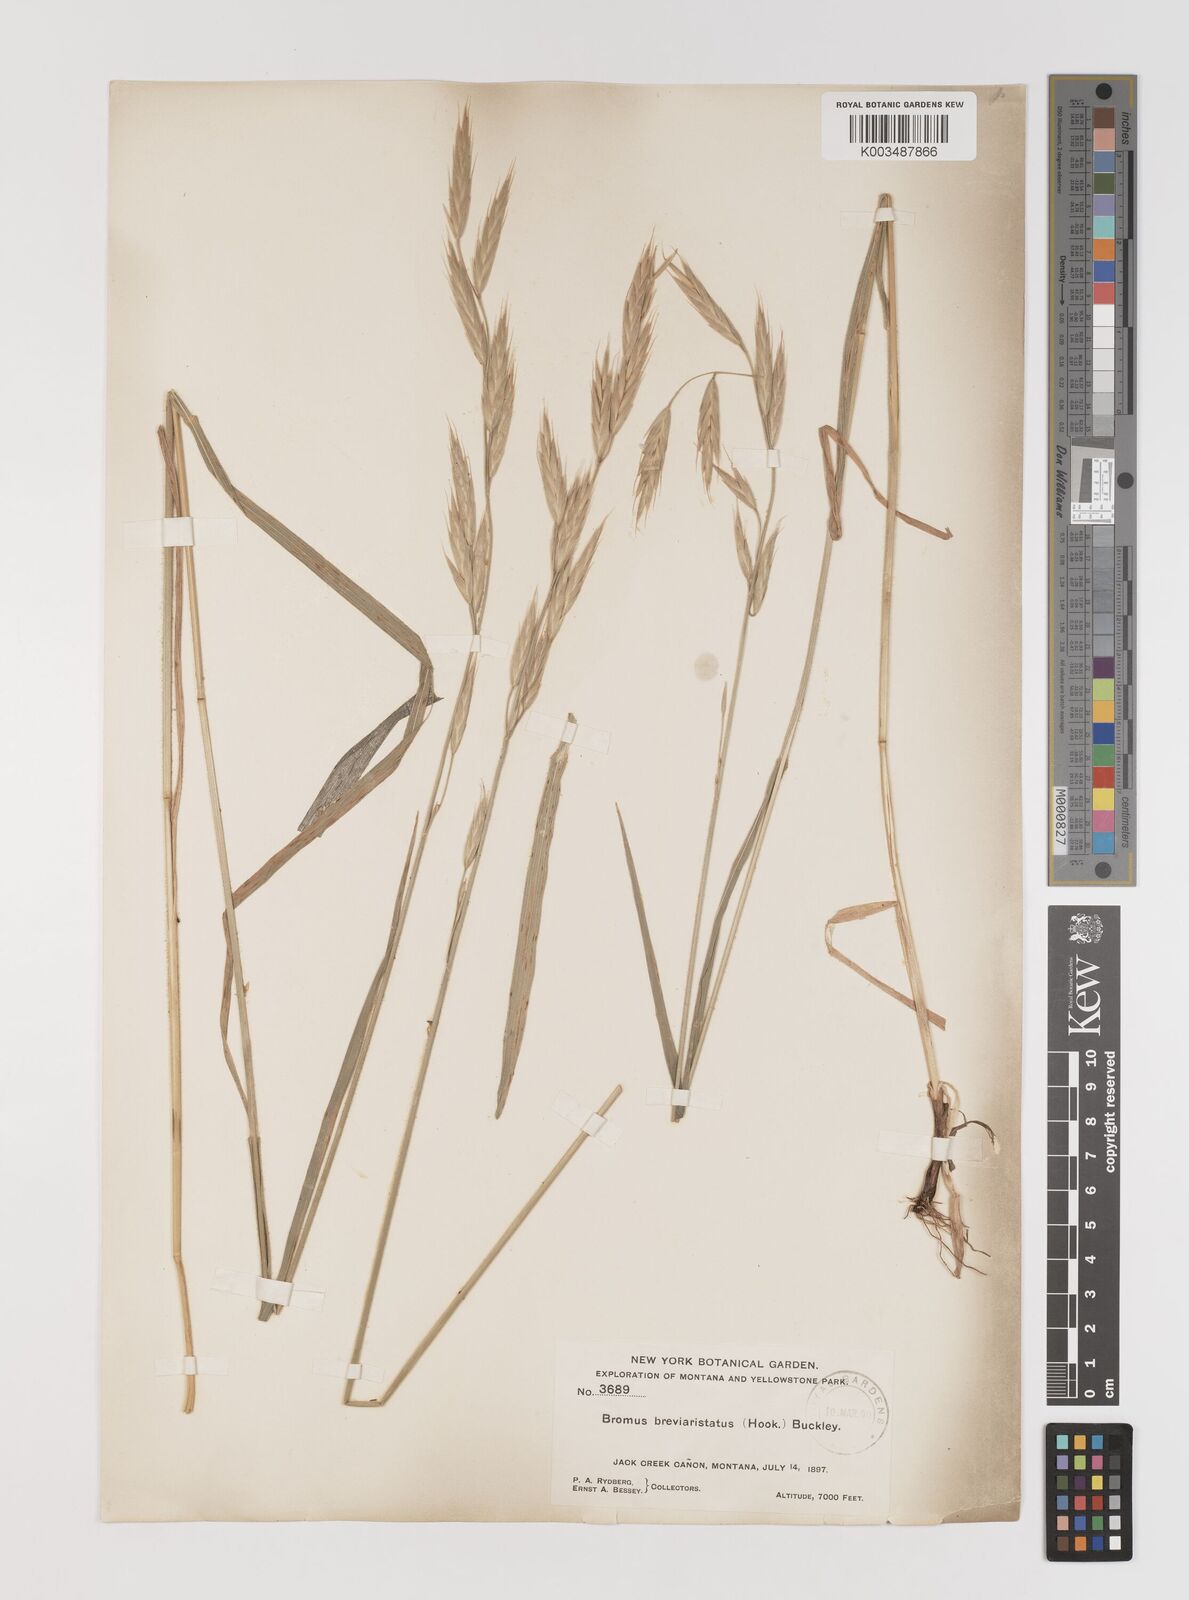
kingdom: Plantae
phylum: Tracheophyta
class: Liliopsida
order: Poales
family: Poaceae
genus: Bromus
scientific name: Bromus catharticus
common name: Rescuegrass
